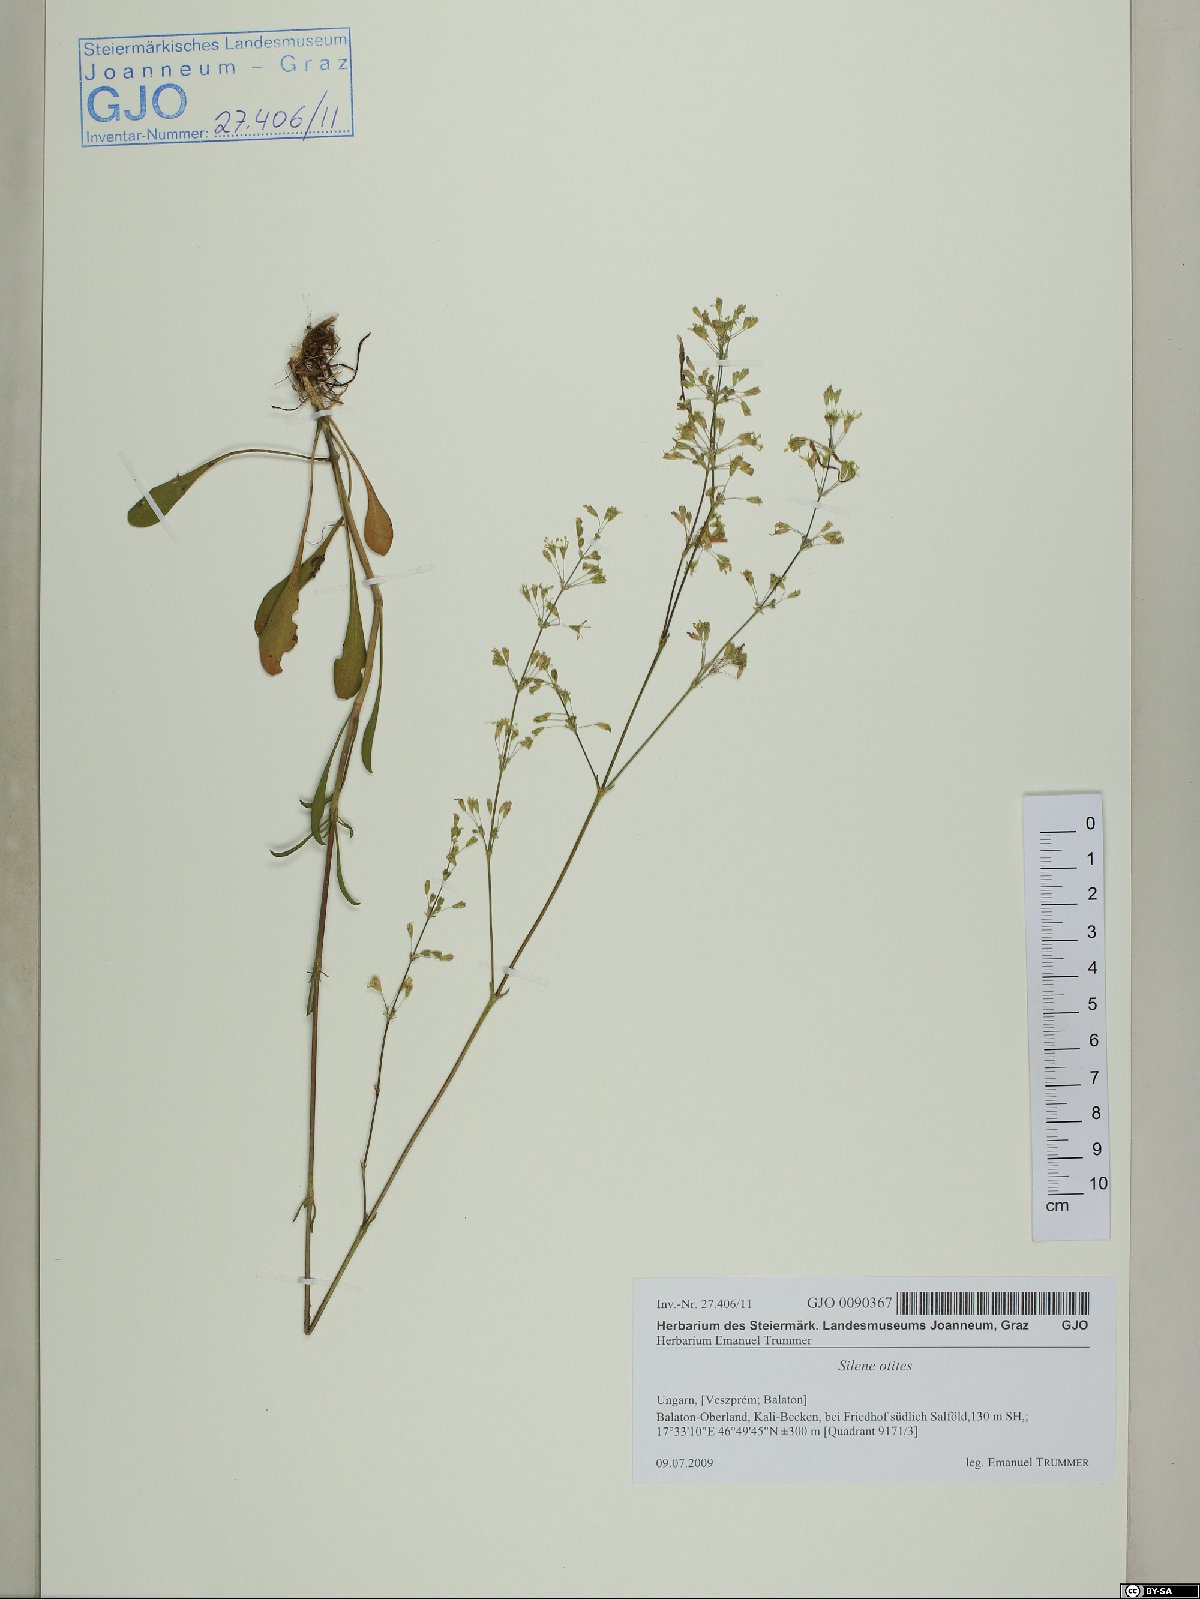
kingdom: Plantae
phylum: Tracheophyta
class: Magnoliopsida
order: Caryophyllales
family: Caryophyllaceae
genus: Silene
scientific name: Silene otites
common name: Spanish catchfly
